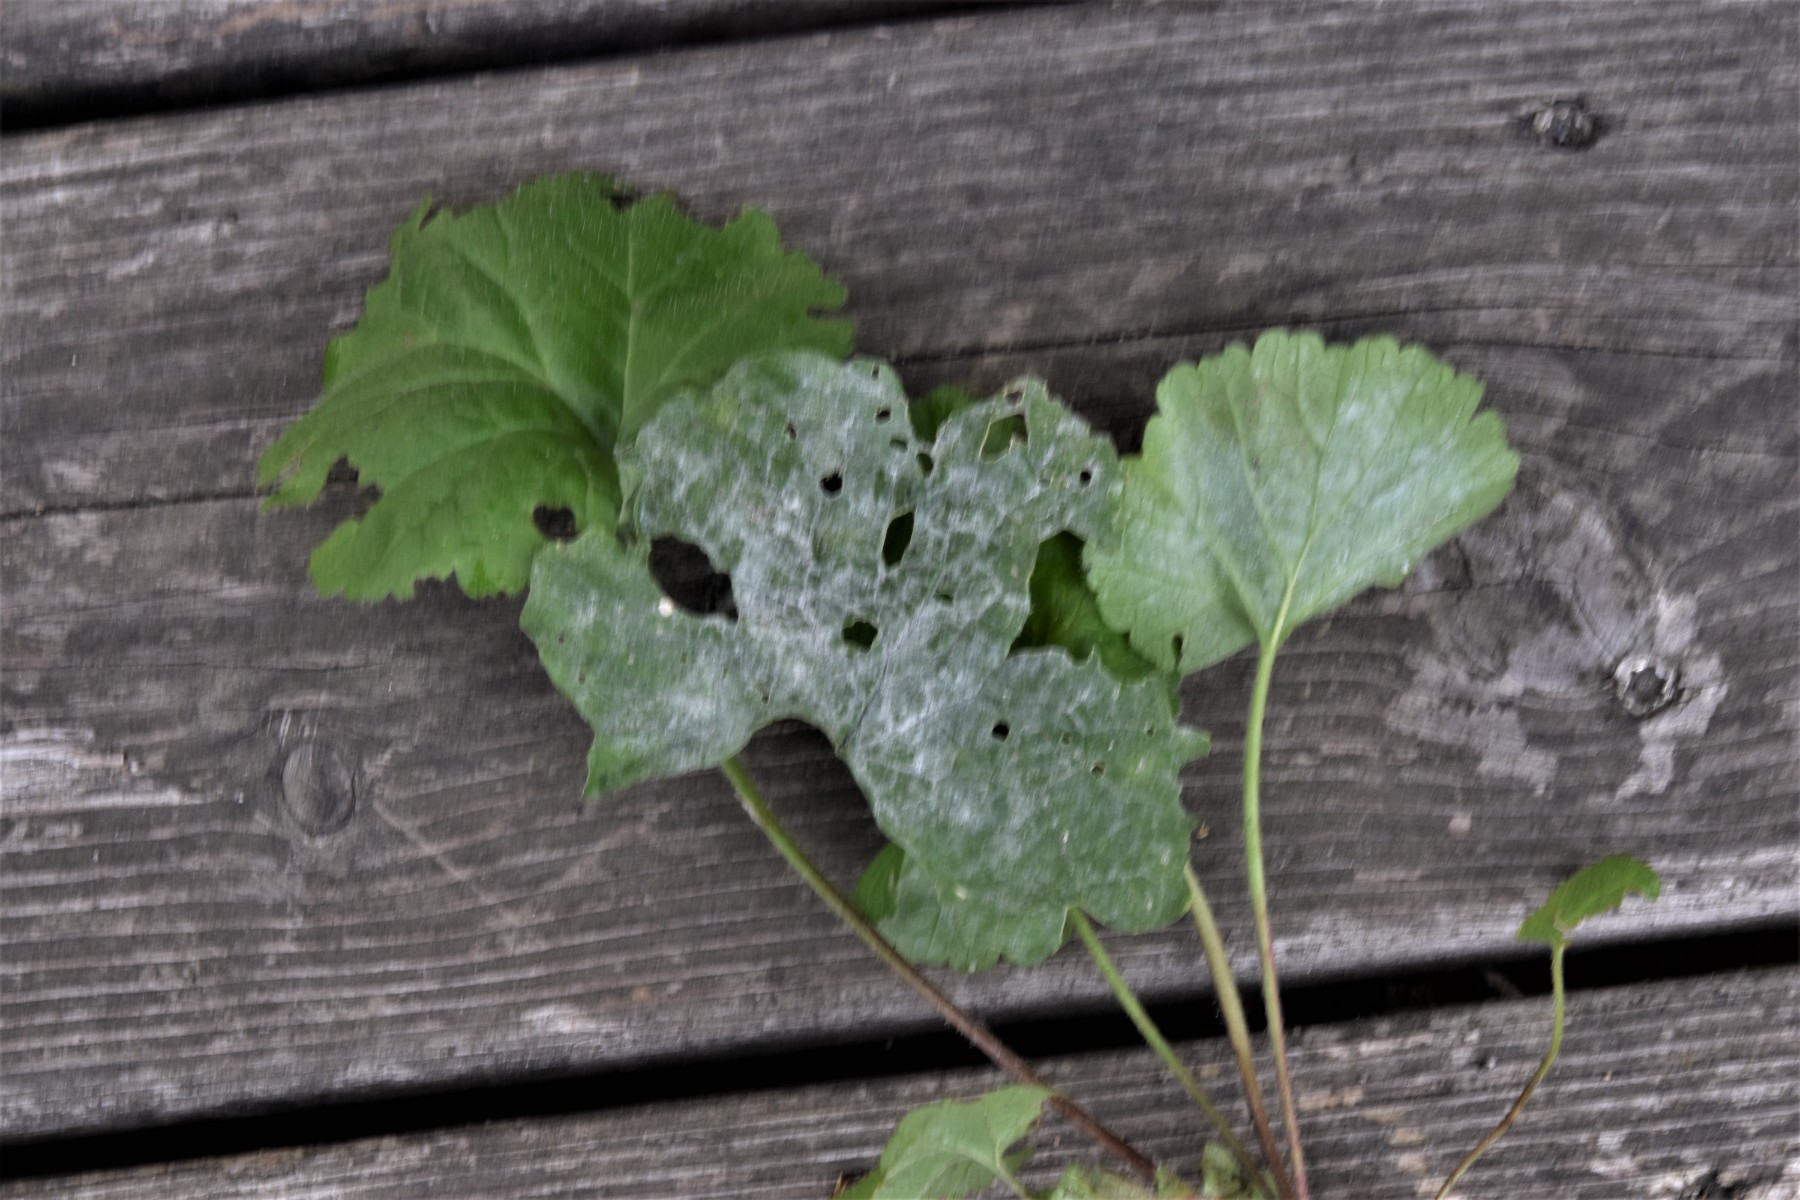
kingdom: Fungi
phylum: Ascomycota
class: Leotiomycetes
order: Helotiales
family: Erysiphaceae
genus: Erysiphe
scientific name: Erysiphe cruciferarum
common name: korsblomst-meldug
